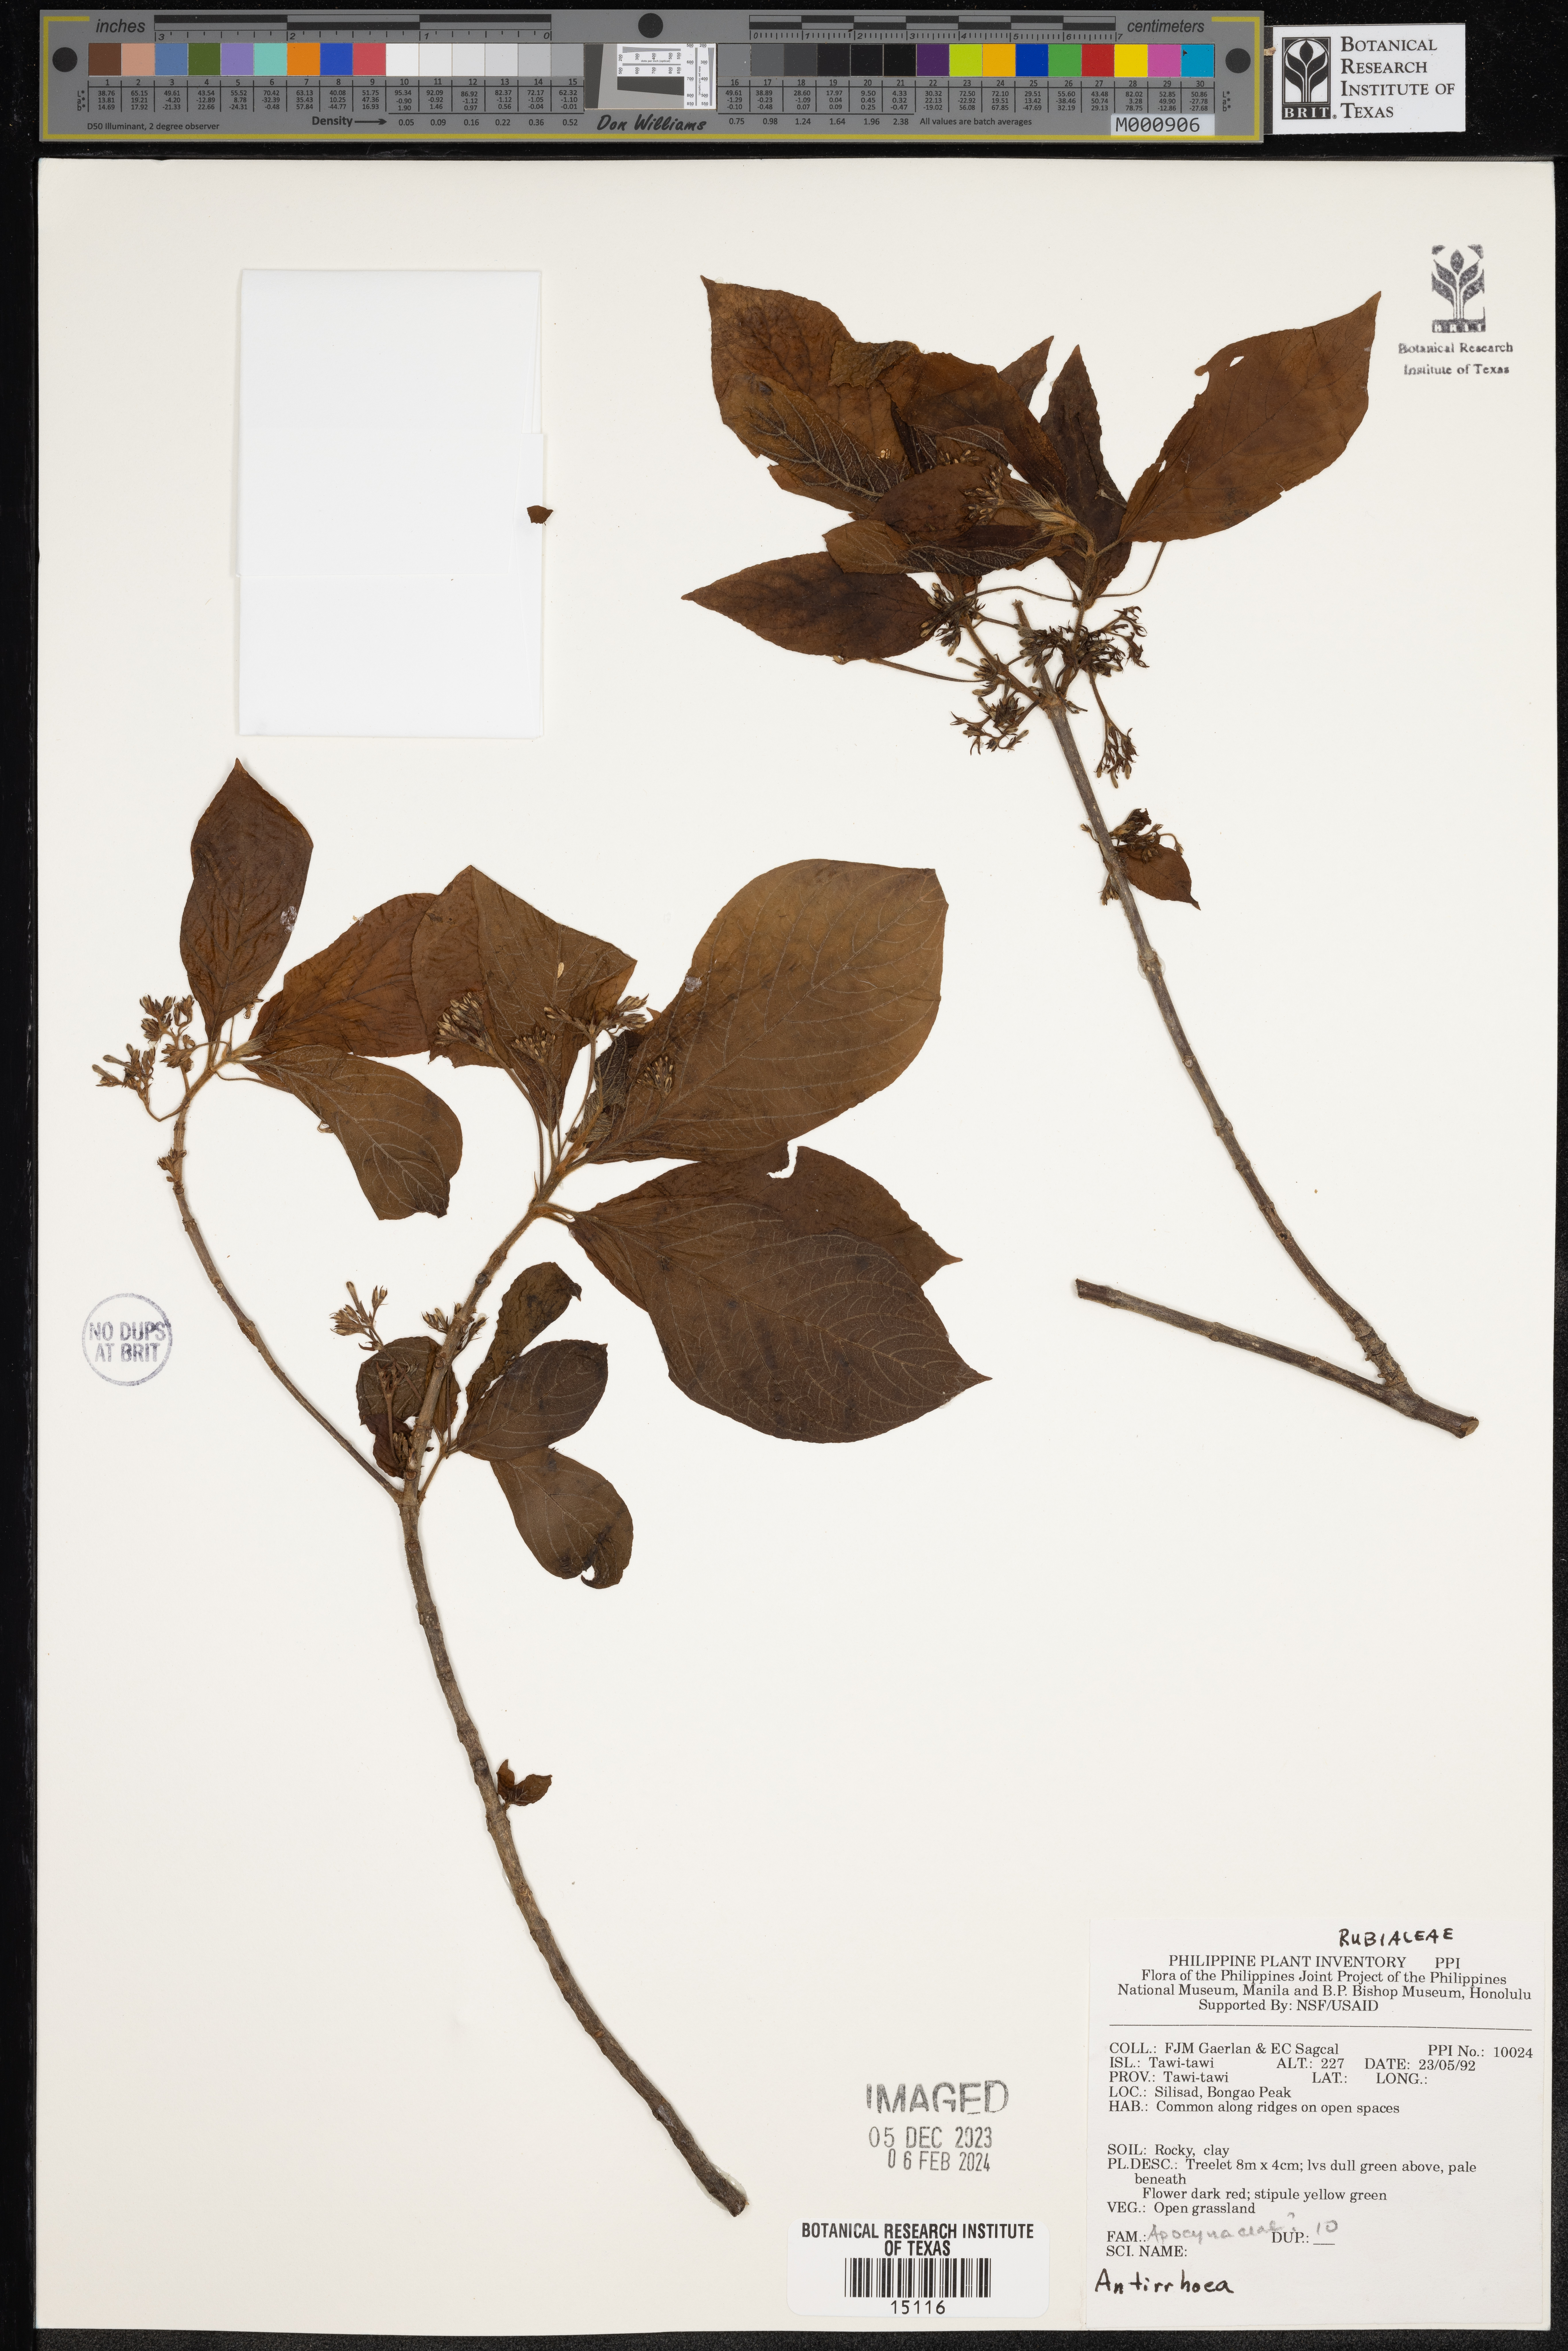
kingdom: Plantae
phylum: Tracheophyta
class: Magnoliopsida
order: Gentianales
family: Rubiaceae
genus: Antirrhoea
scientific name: Antirrhoea
